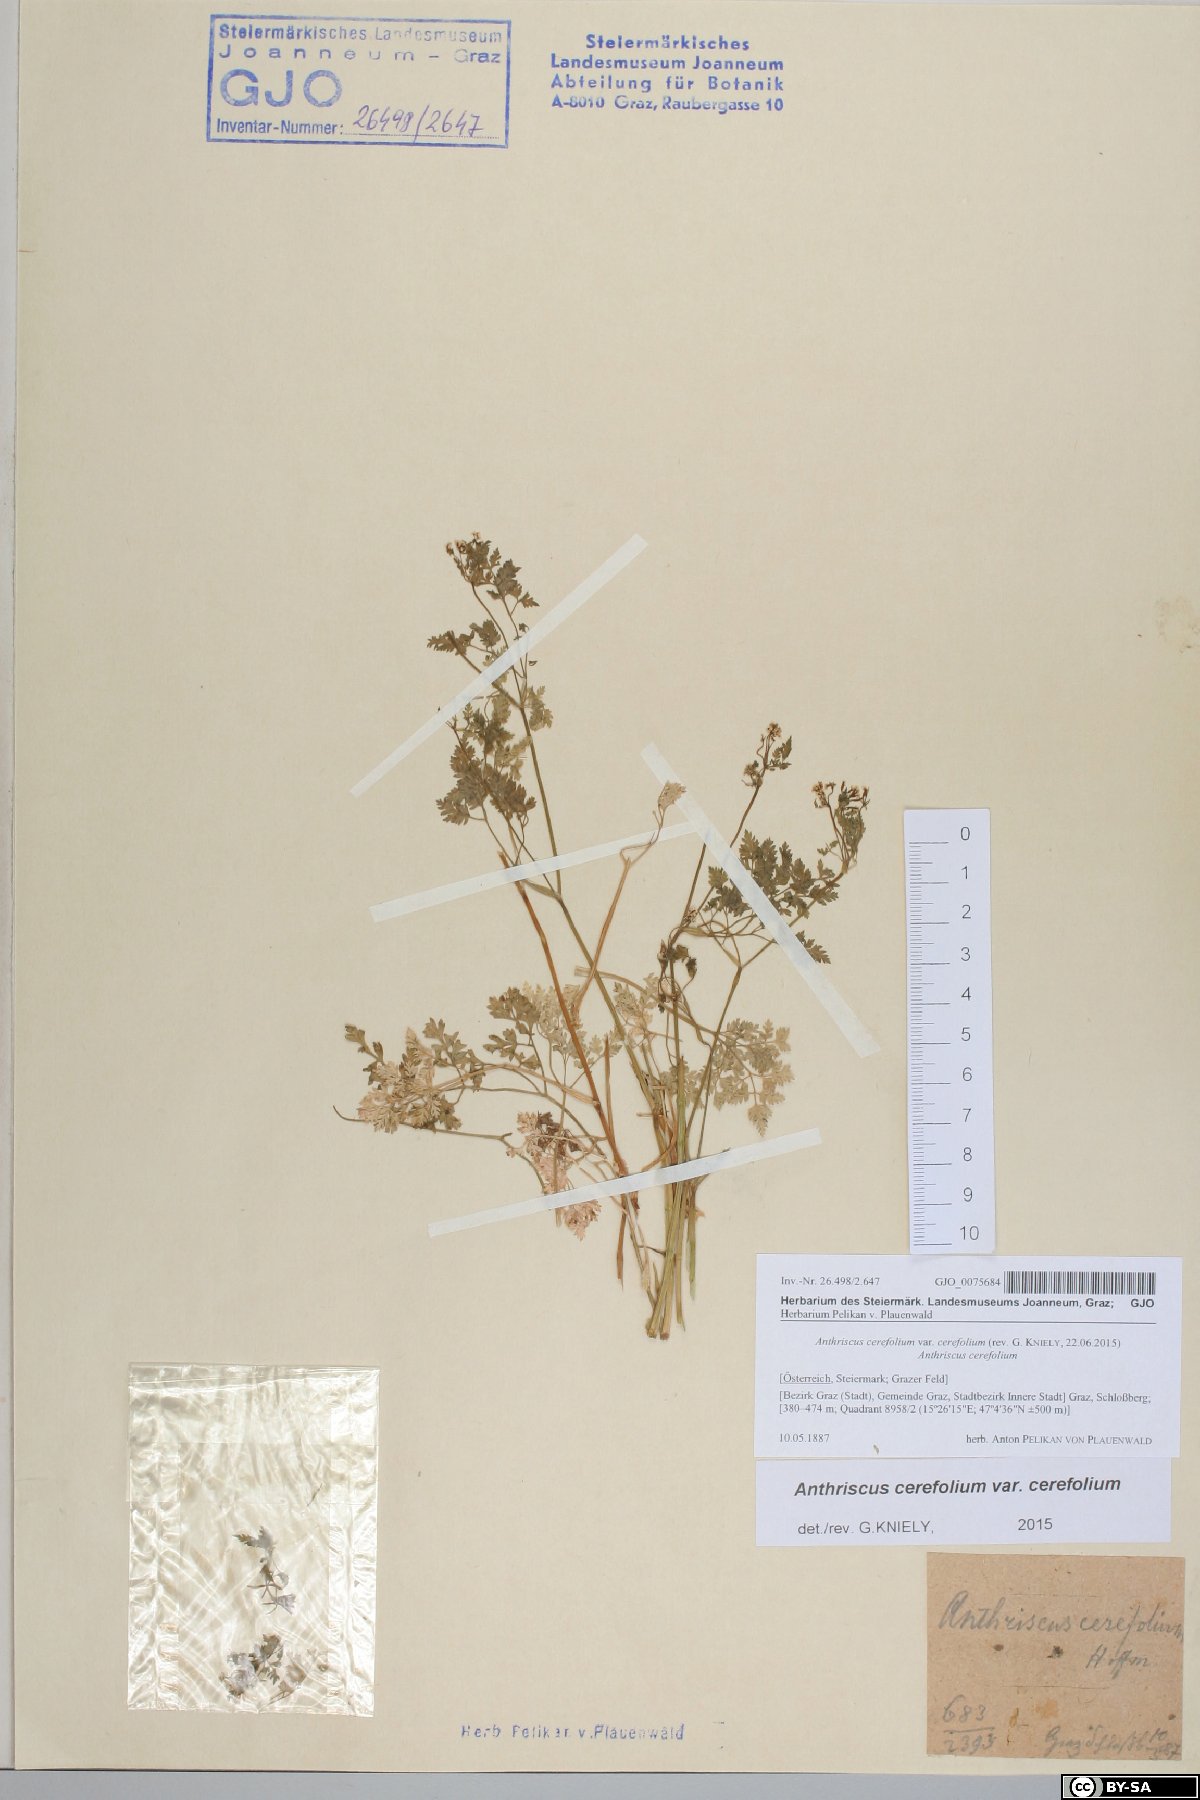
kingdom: Plantae
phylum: Tracheophyta
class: Magnoliopsida
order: Apiales
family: Apiaceae
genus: Anthriscus
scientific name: Anthriscus cerefolium
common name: Garden chervil
